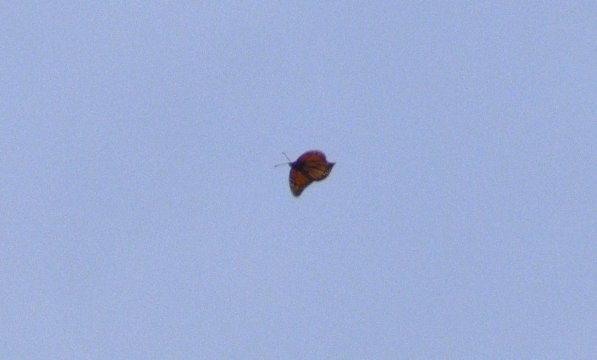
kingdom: Animalia
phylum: Arthropoda
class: Insecta
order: Lepidoptera
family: Nymphalidae
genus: Danaus
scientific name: Danaus plexippus
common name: Monarch
